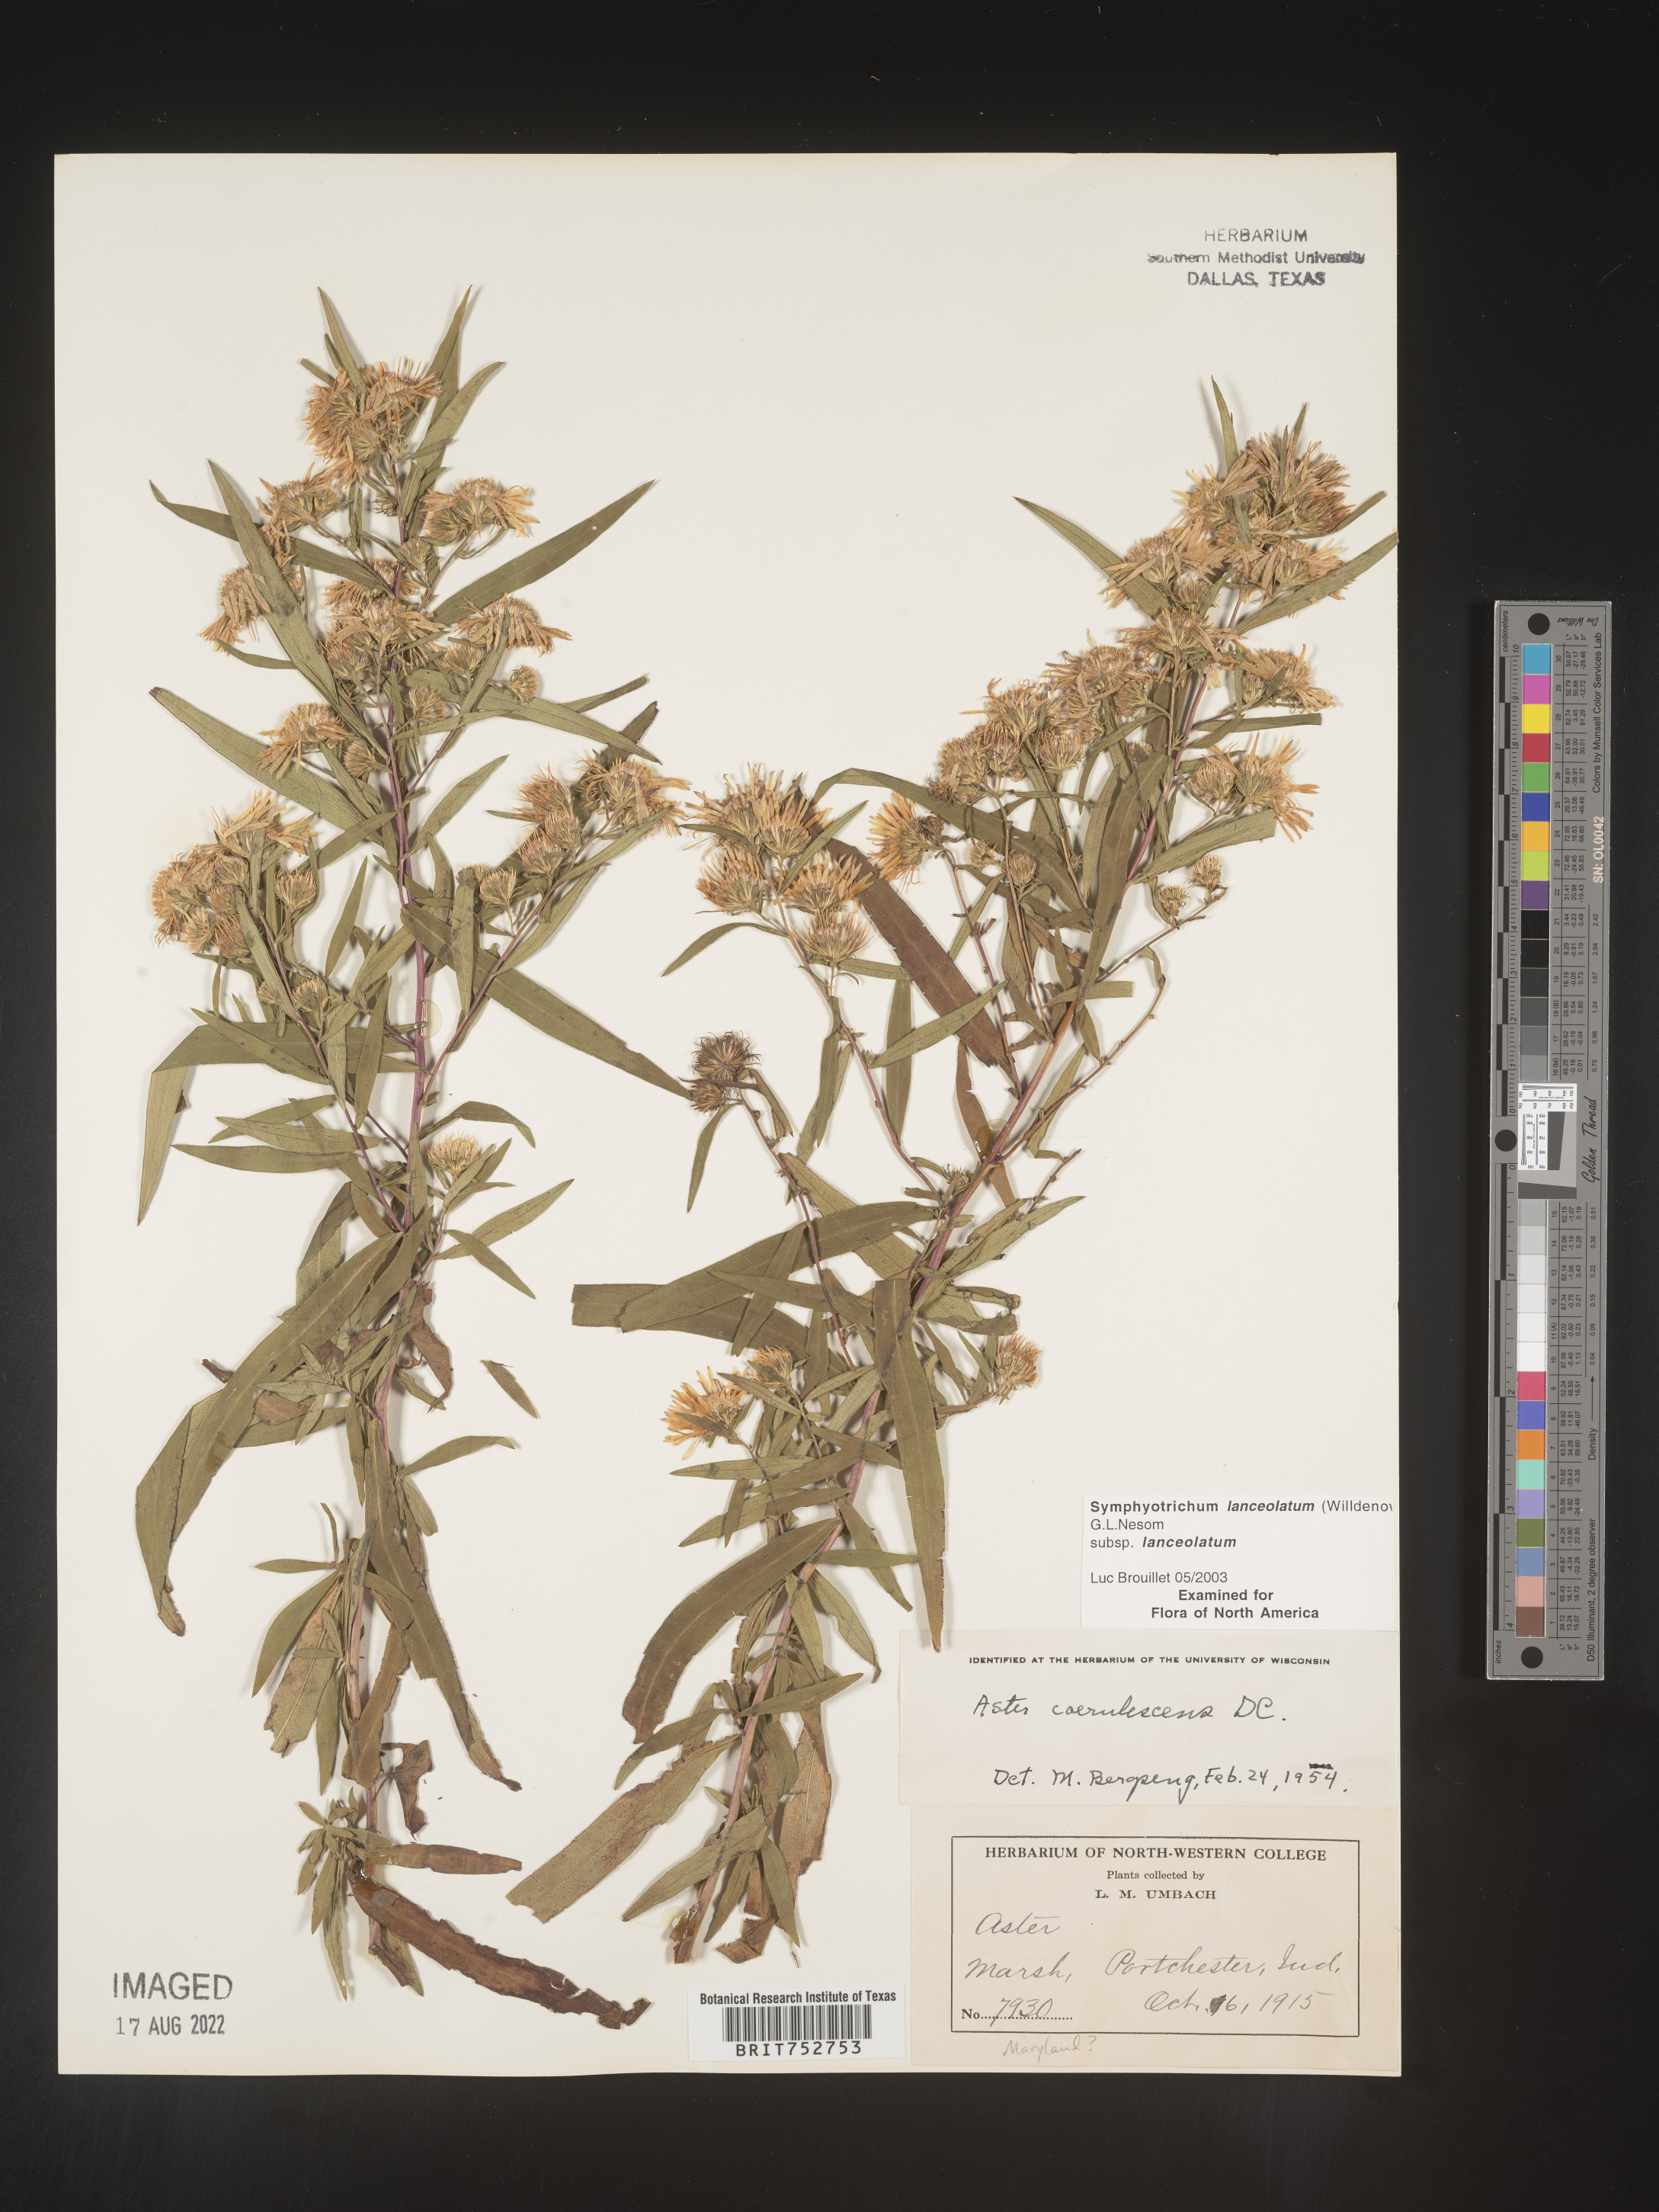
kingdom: Plantae
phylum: Tracheophyta
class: Magnoliopsida
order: Asterales
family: Asteraceae
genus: Symphyotrichum
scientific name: Symphyotrichum lanceolatum
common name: Panicled aster
